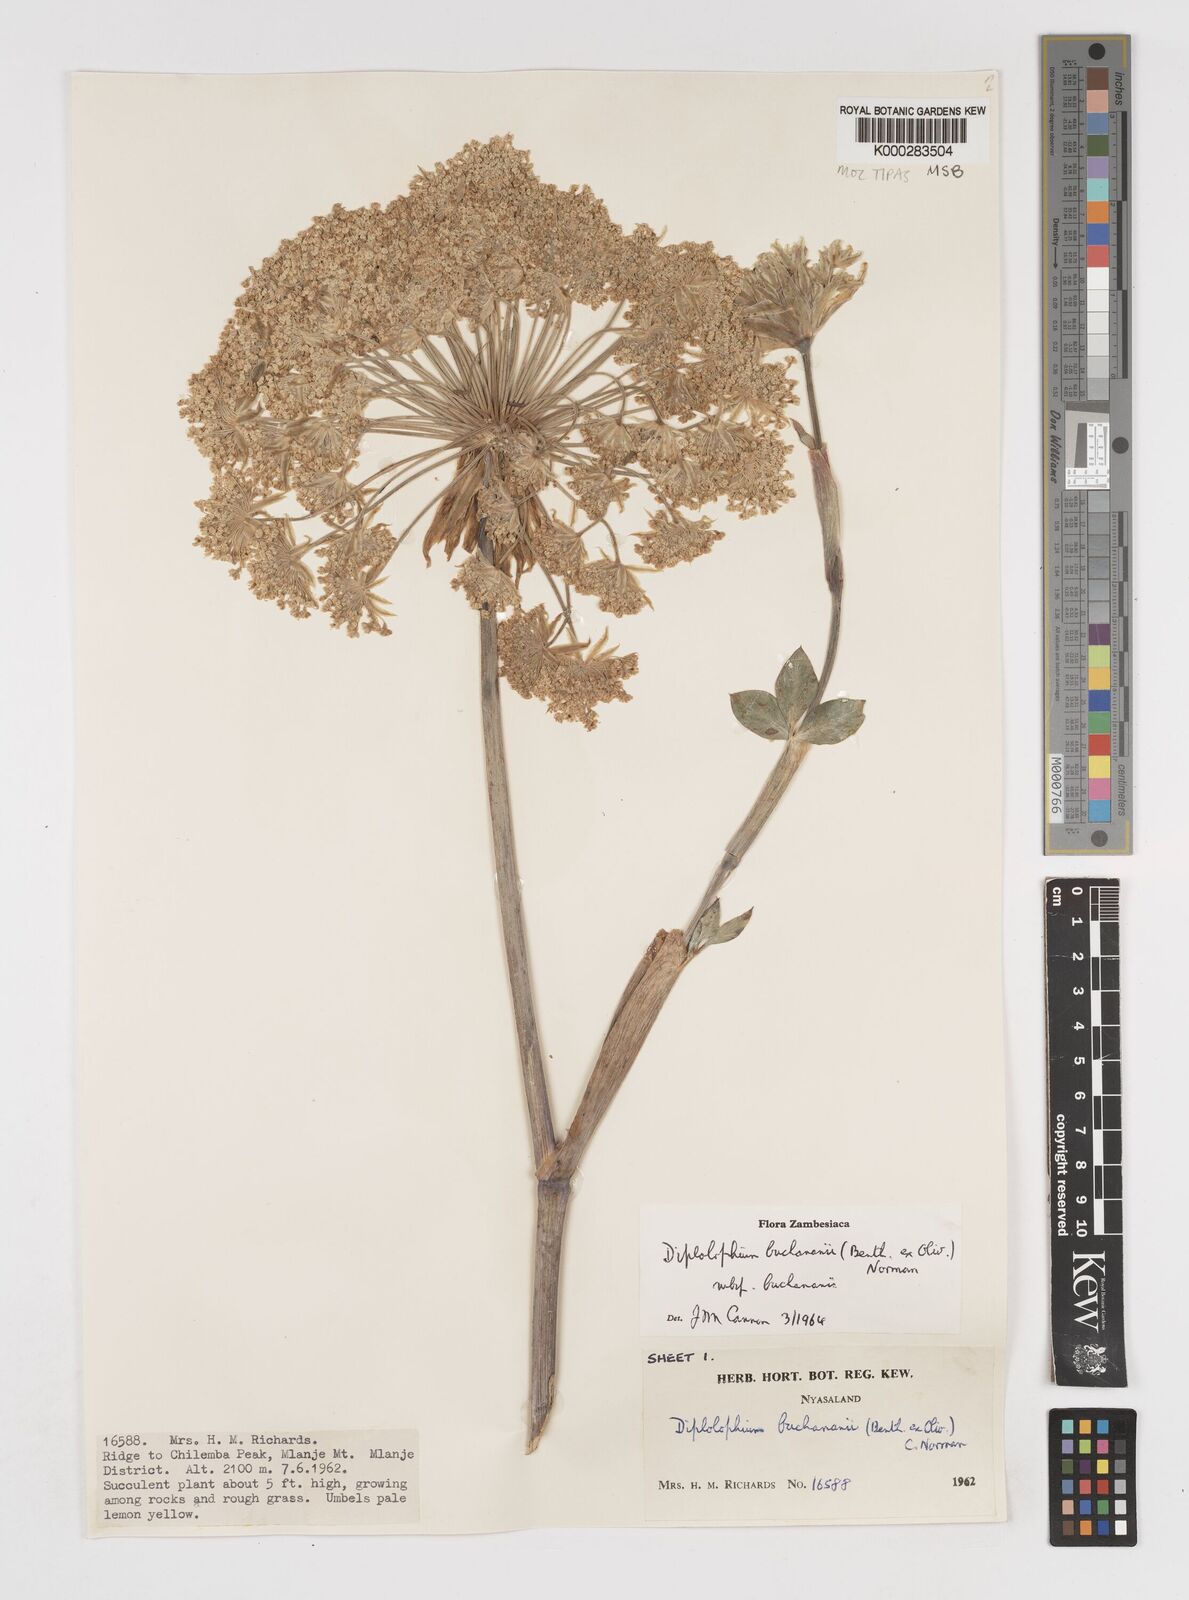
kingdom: Plantae
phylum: Tracheophyta
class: Magnoliopsida
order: Apiales
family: Apiaceae
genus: Diplolophium
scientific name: Diplolophium buchananii
